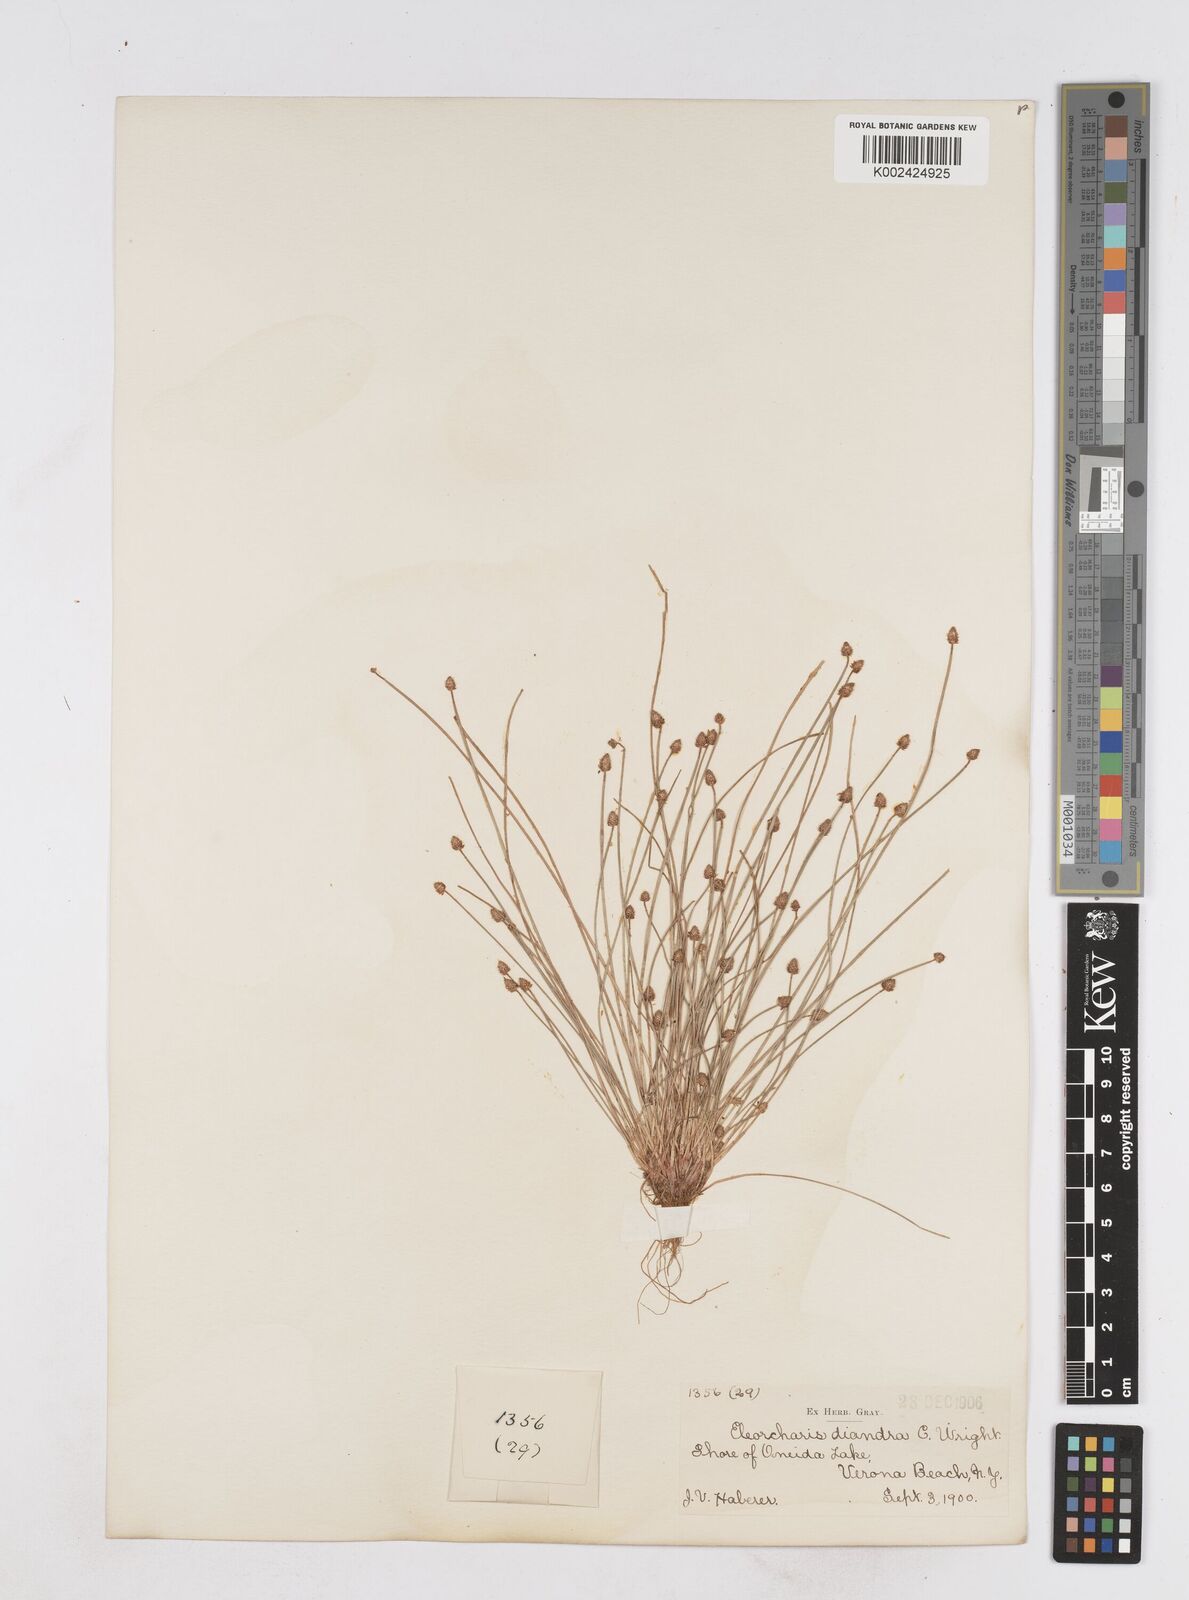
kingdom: Plantae
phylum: Tracheophyta
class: Liliopsida
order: Poales
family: Cyperaceae
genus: Eleocharis
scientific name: Eleocharis ovata
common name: Oval spike-rush
